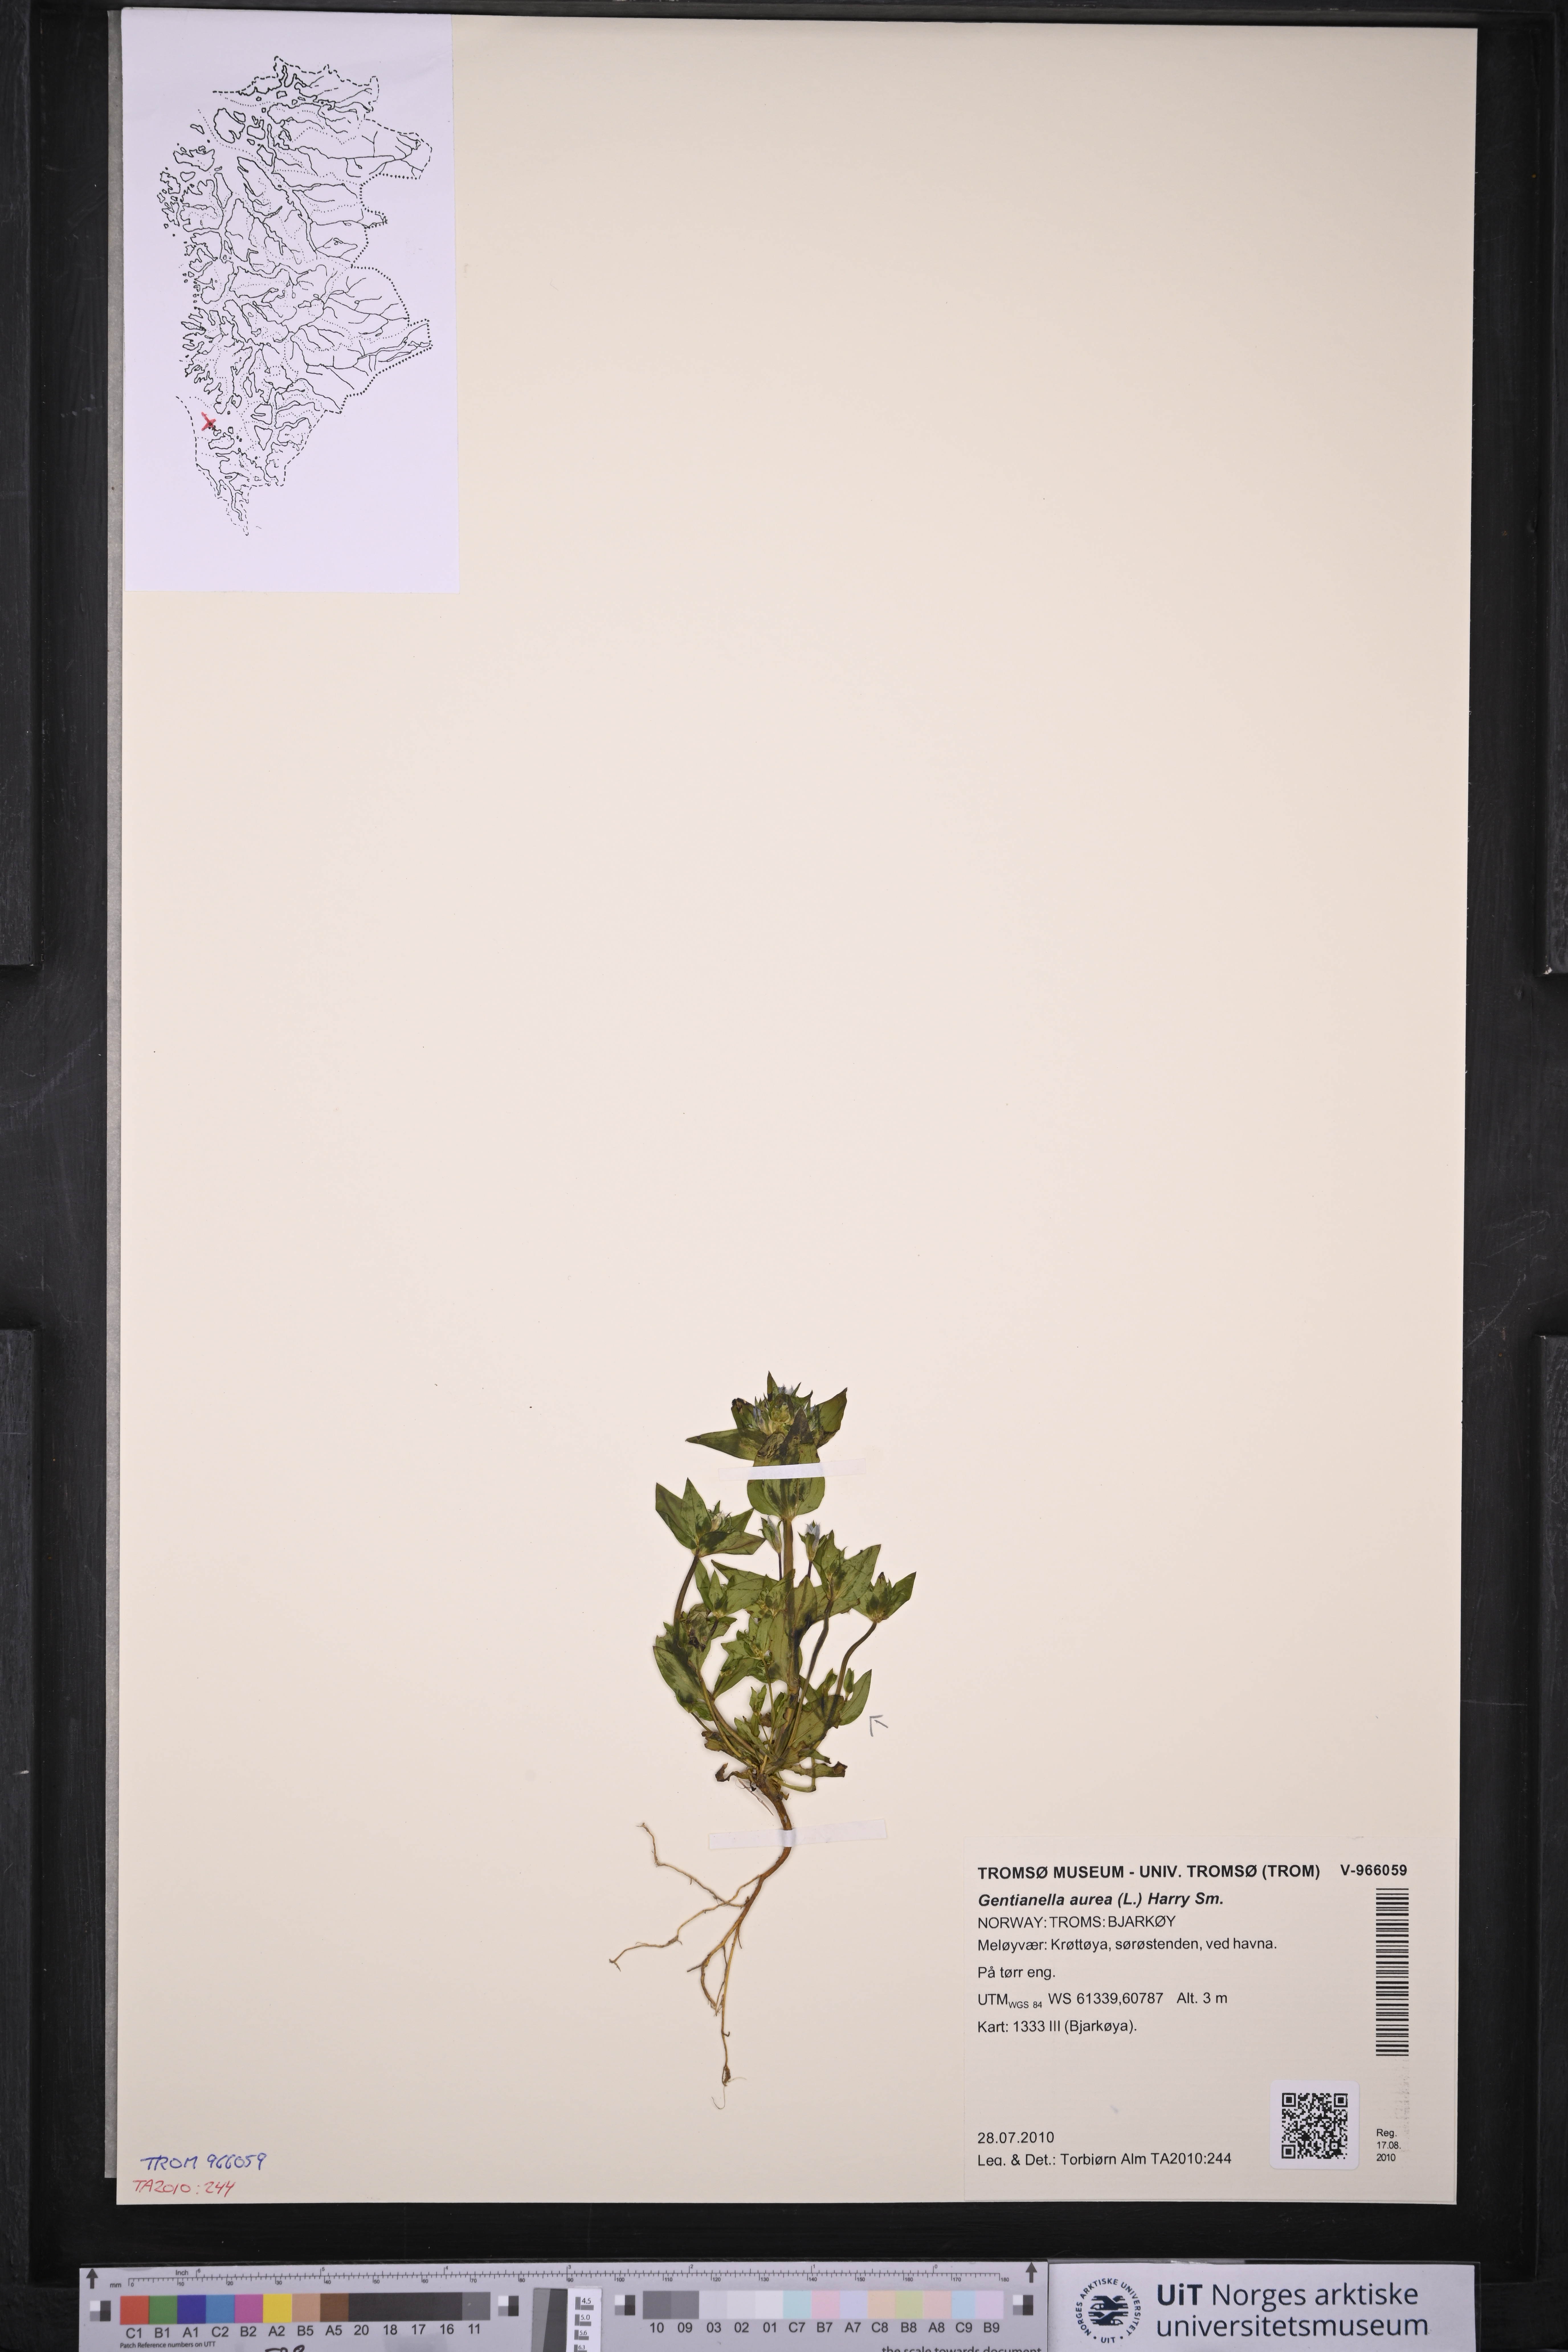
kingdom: Plantae
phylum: Tracheophyta
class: Magnoliopsida
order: Gentianales
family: Gentianaceae
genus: Gentianella
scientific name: Gentianella aurea
